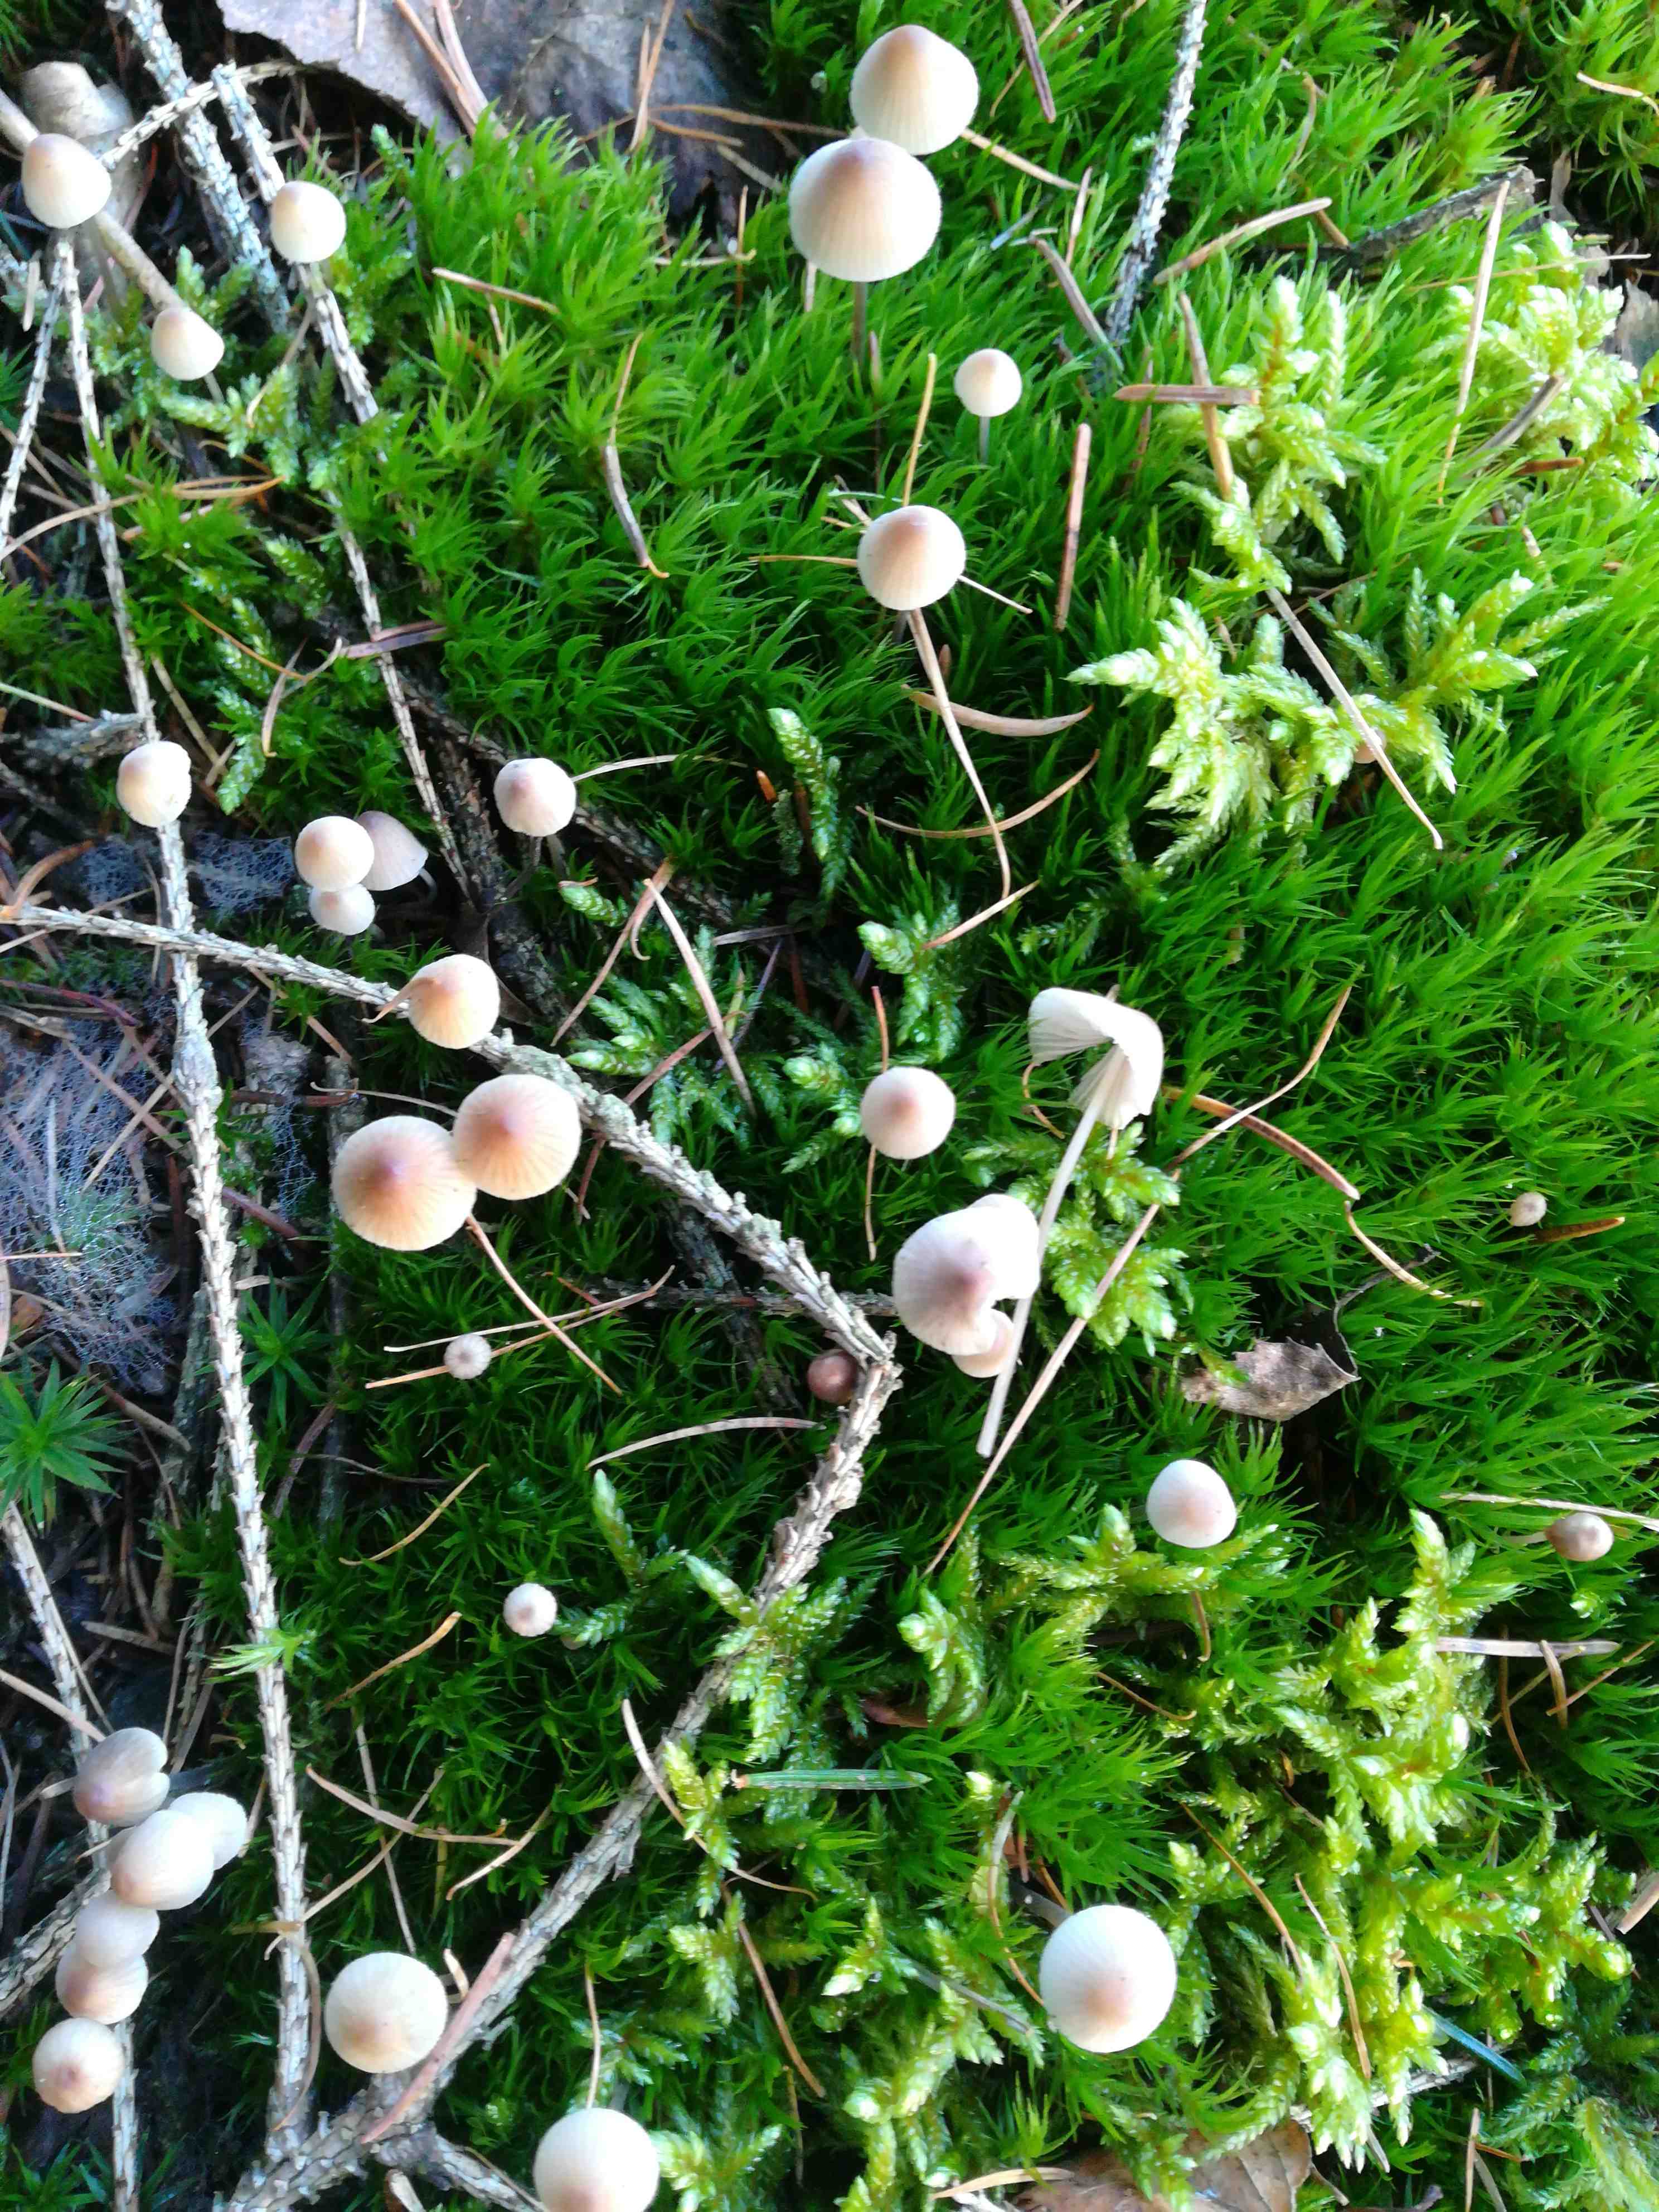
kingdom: Fungi
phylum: Basidiomycota
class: Agaricomycetes
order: Agaricales
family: Mycenaceae
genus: Mycena
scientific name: Mycena metata
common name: rødlig huesvamp
